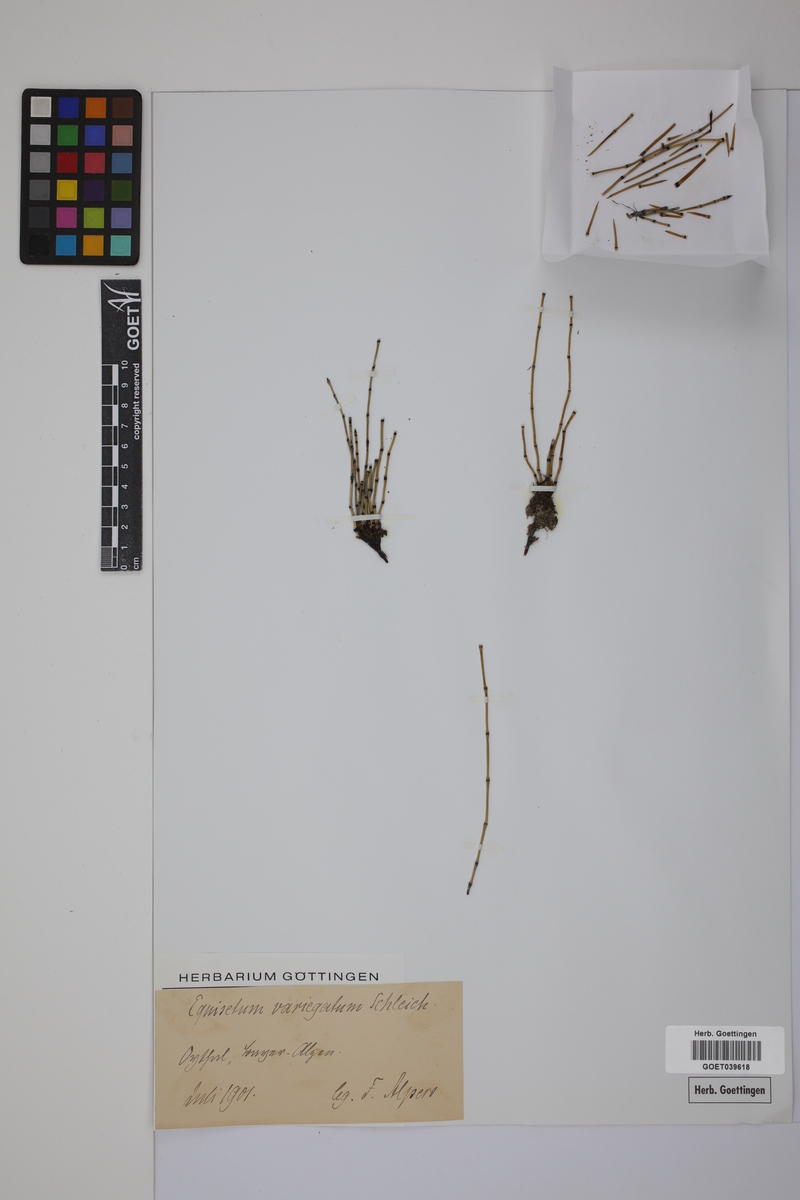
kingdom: Plantae
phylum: Tracheophyta
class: Polypodiopsida
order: Equisetales
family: Equisetaceae
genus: Equisetum
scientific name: Equisetum variegatum
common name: Variegated horsetail
